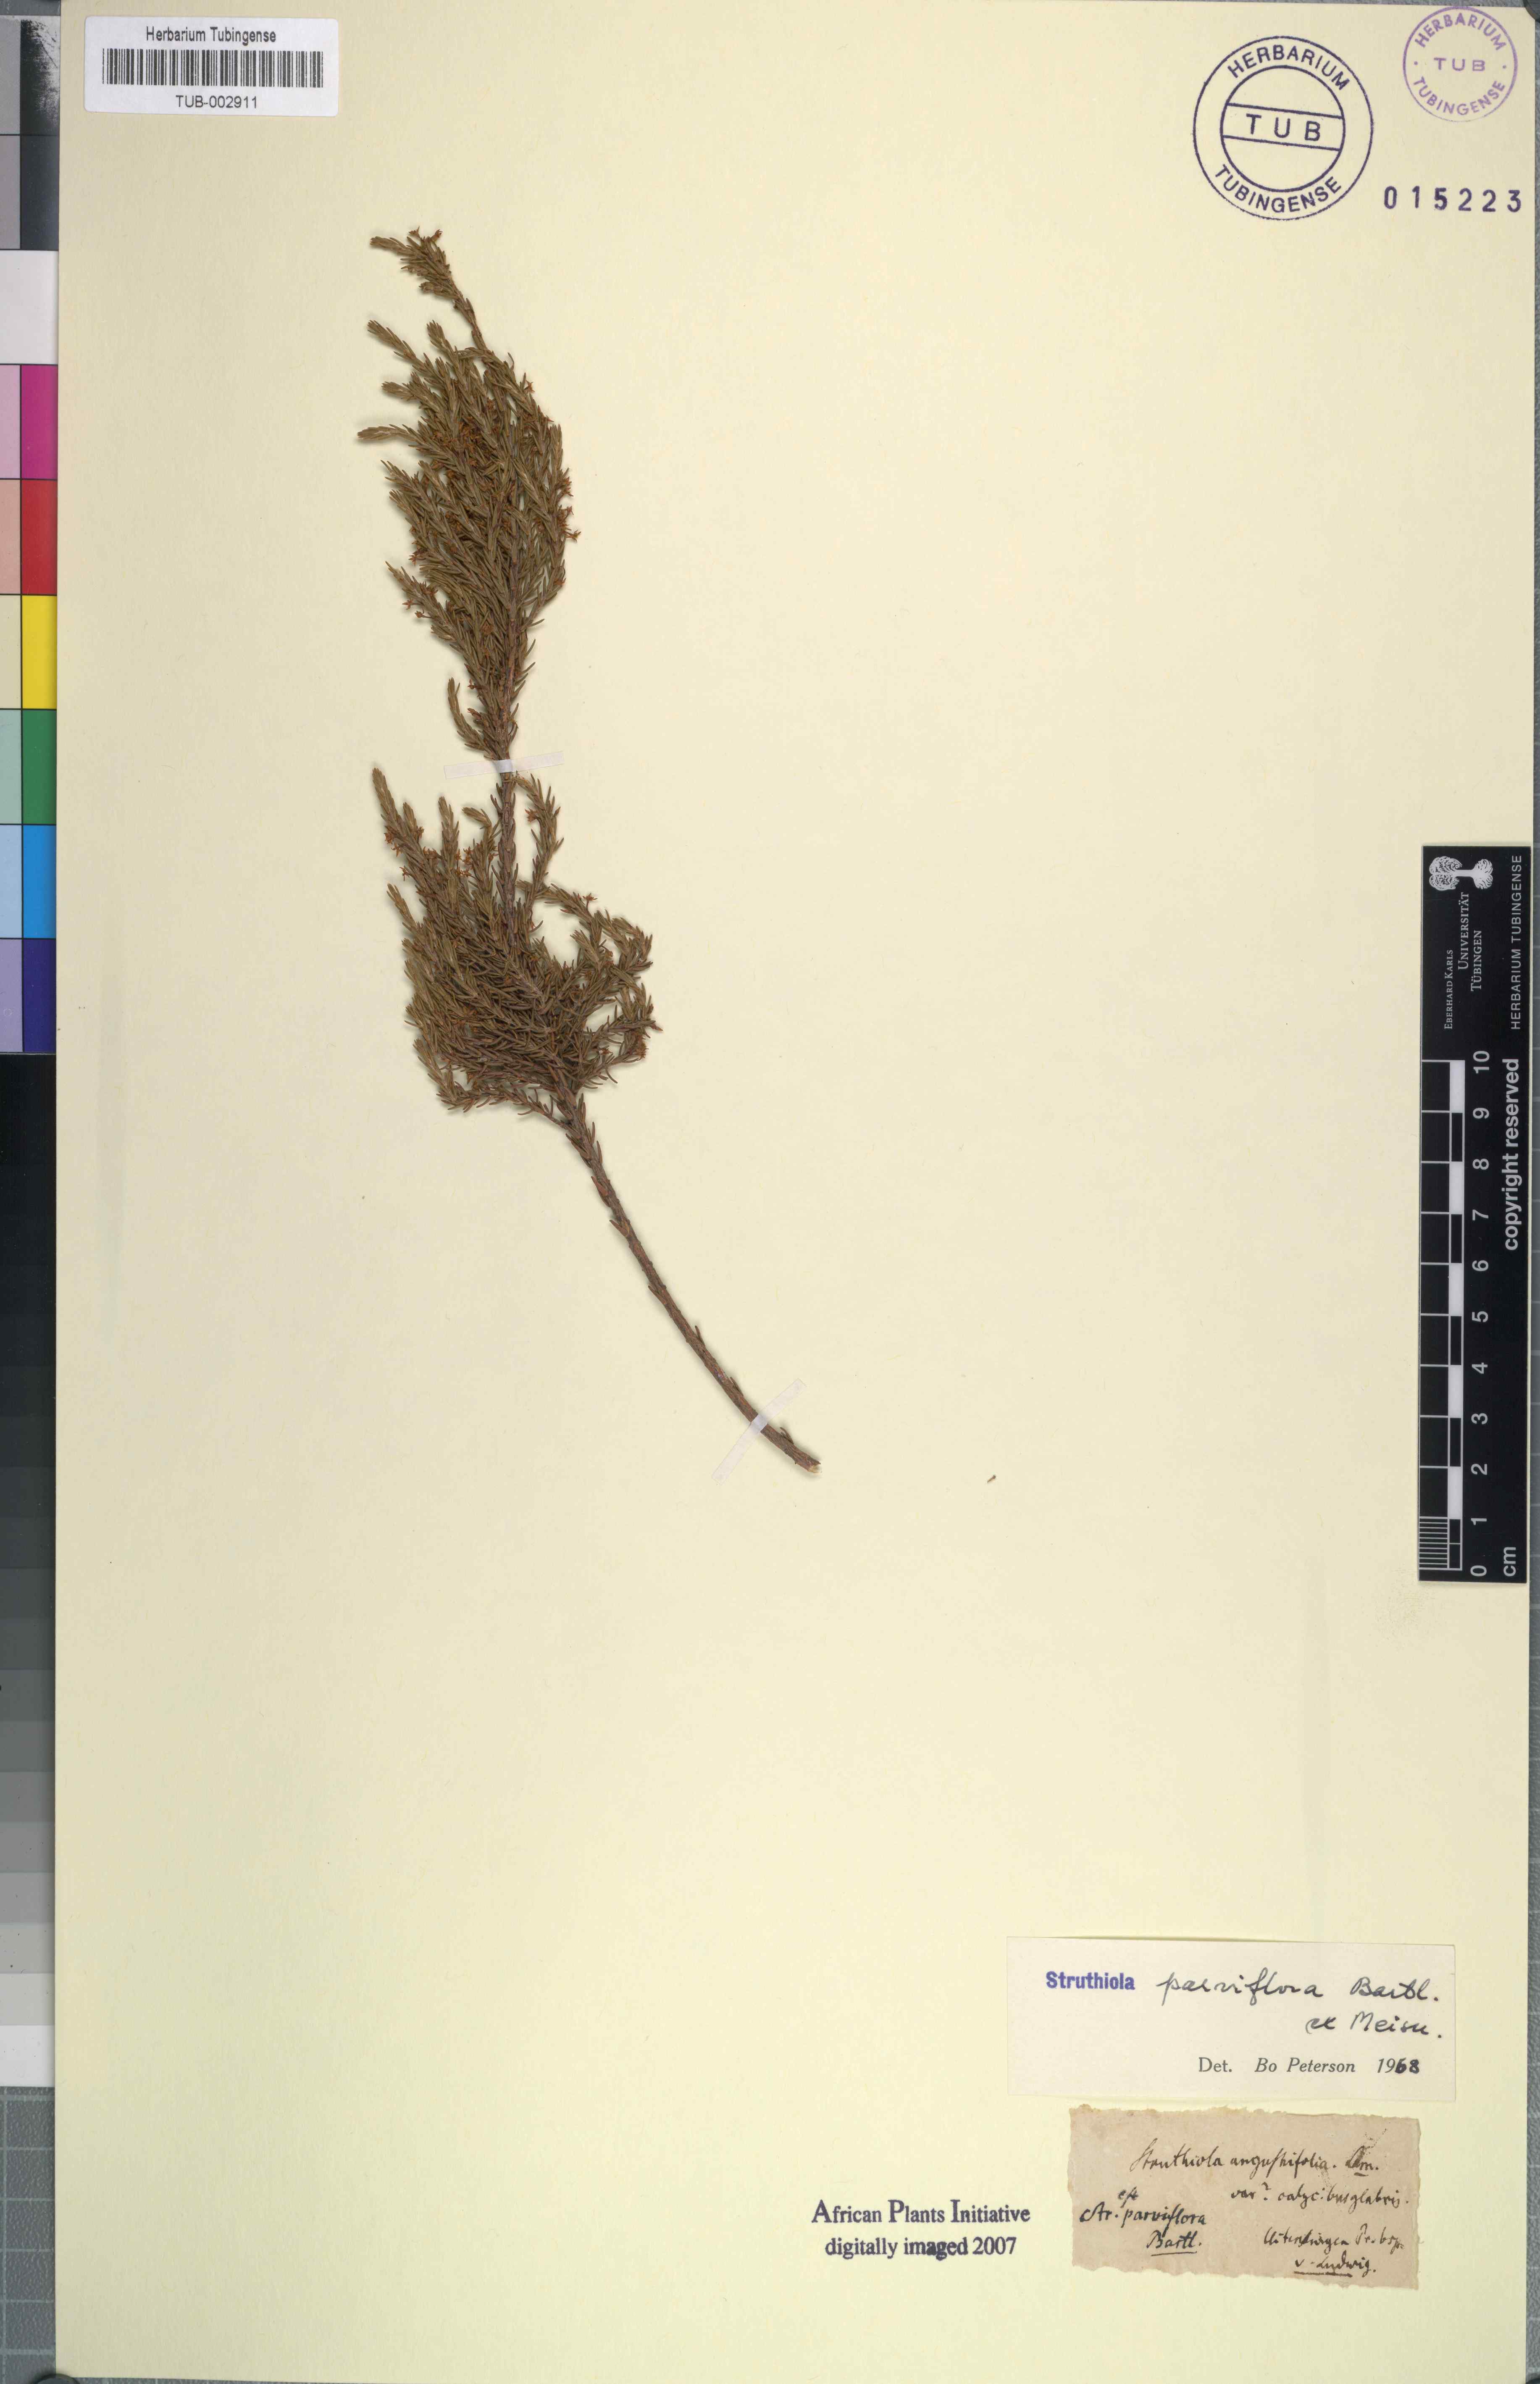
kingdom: Plantae
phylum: Tracheophyta
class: Magnoliopsida
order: Malvales
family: Thymelaeaceae
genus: Struthiola
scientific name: Struthiola parviflora
